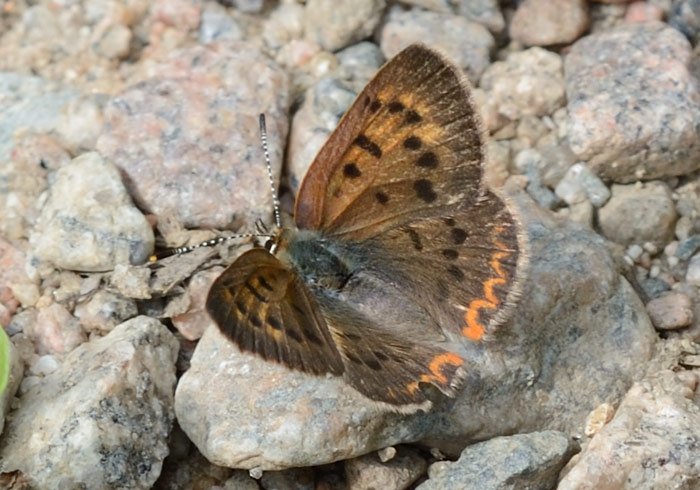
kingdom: Animalia
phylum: Arthropoda
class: Insecta
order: Lepidoptera
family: Sesiidae
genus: Sesia
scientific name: Sesia Lycaena helloides
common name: Purplish Copper
